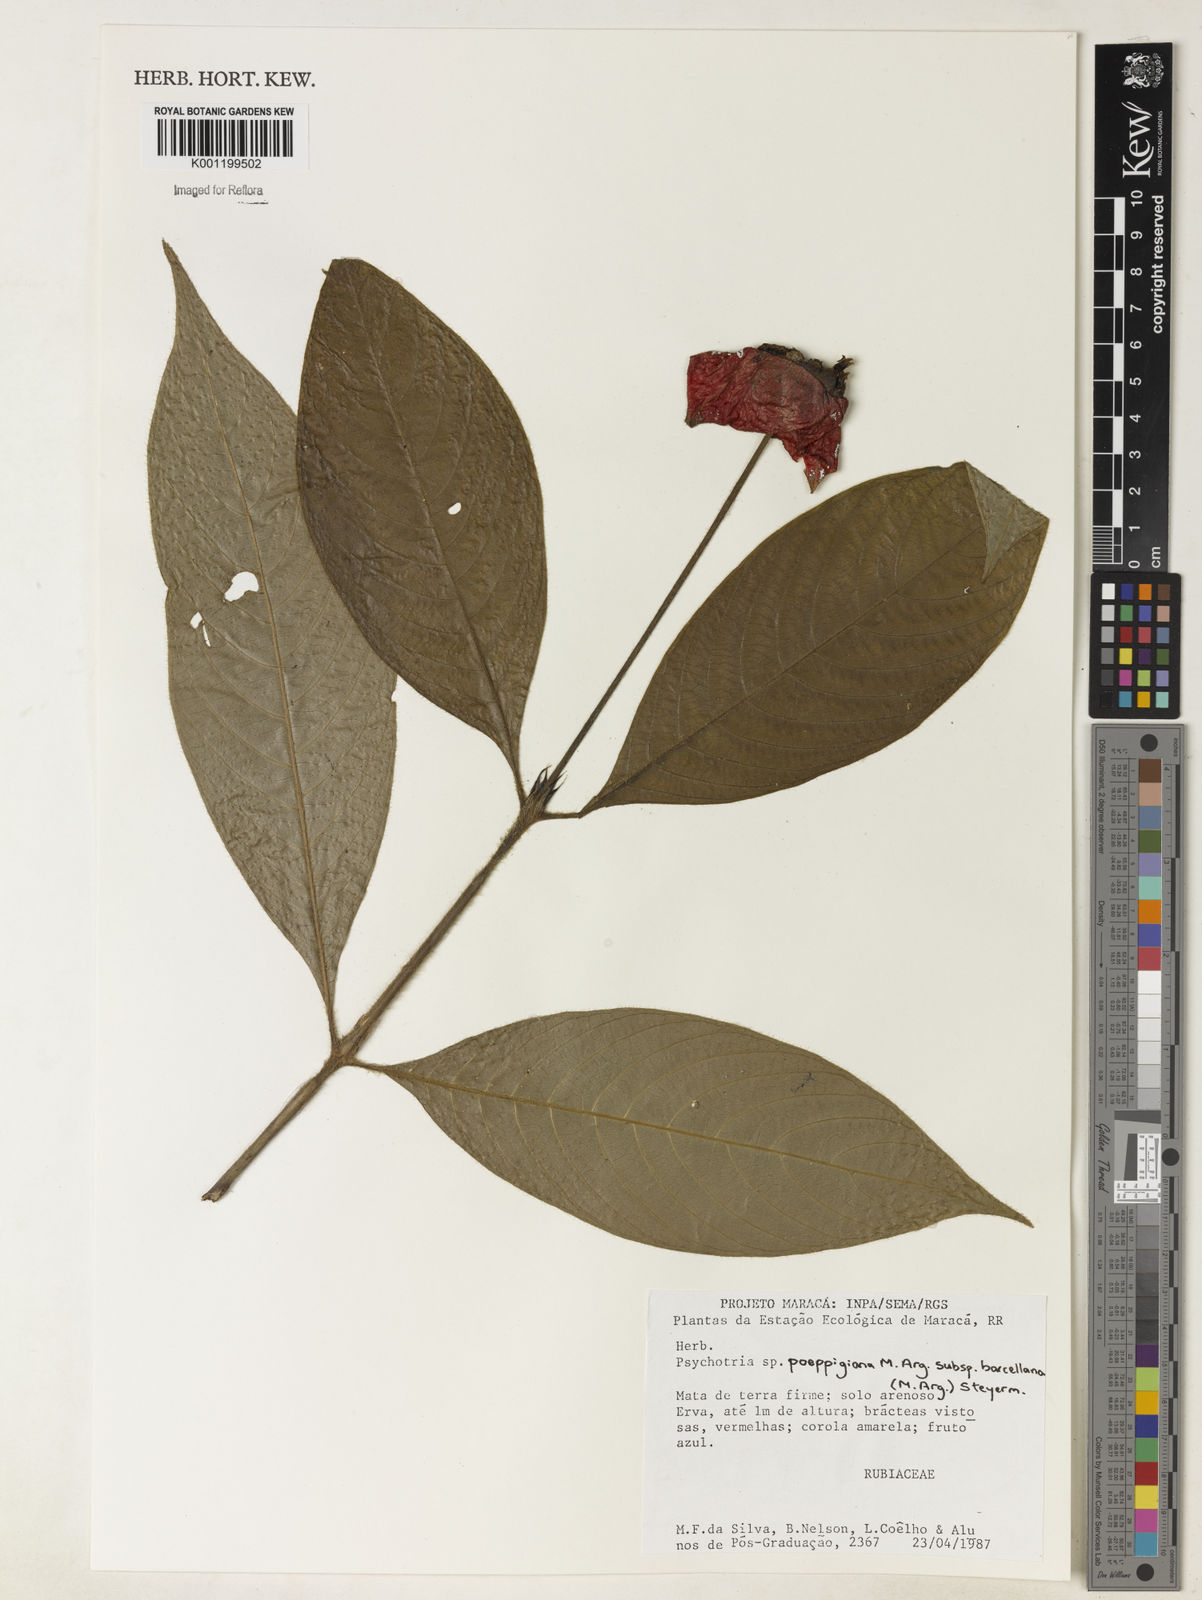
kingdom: Plantae
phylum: Tracheophyta
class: Magnoliopsida
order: Gentianales
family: Rubiaceae
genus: Psychotria
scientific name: Psychotria
